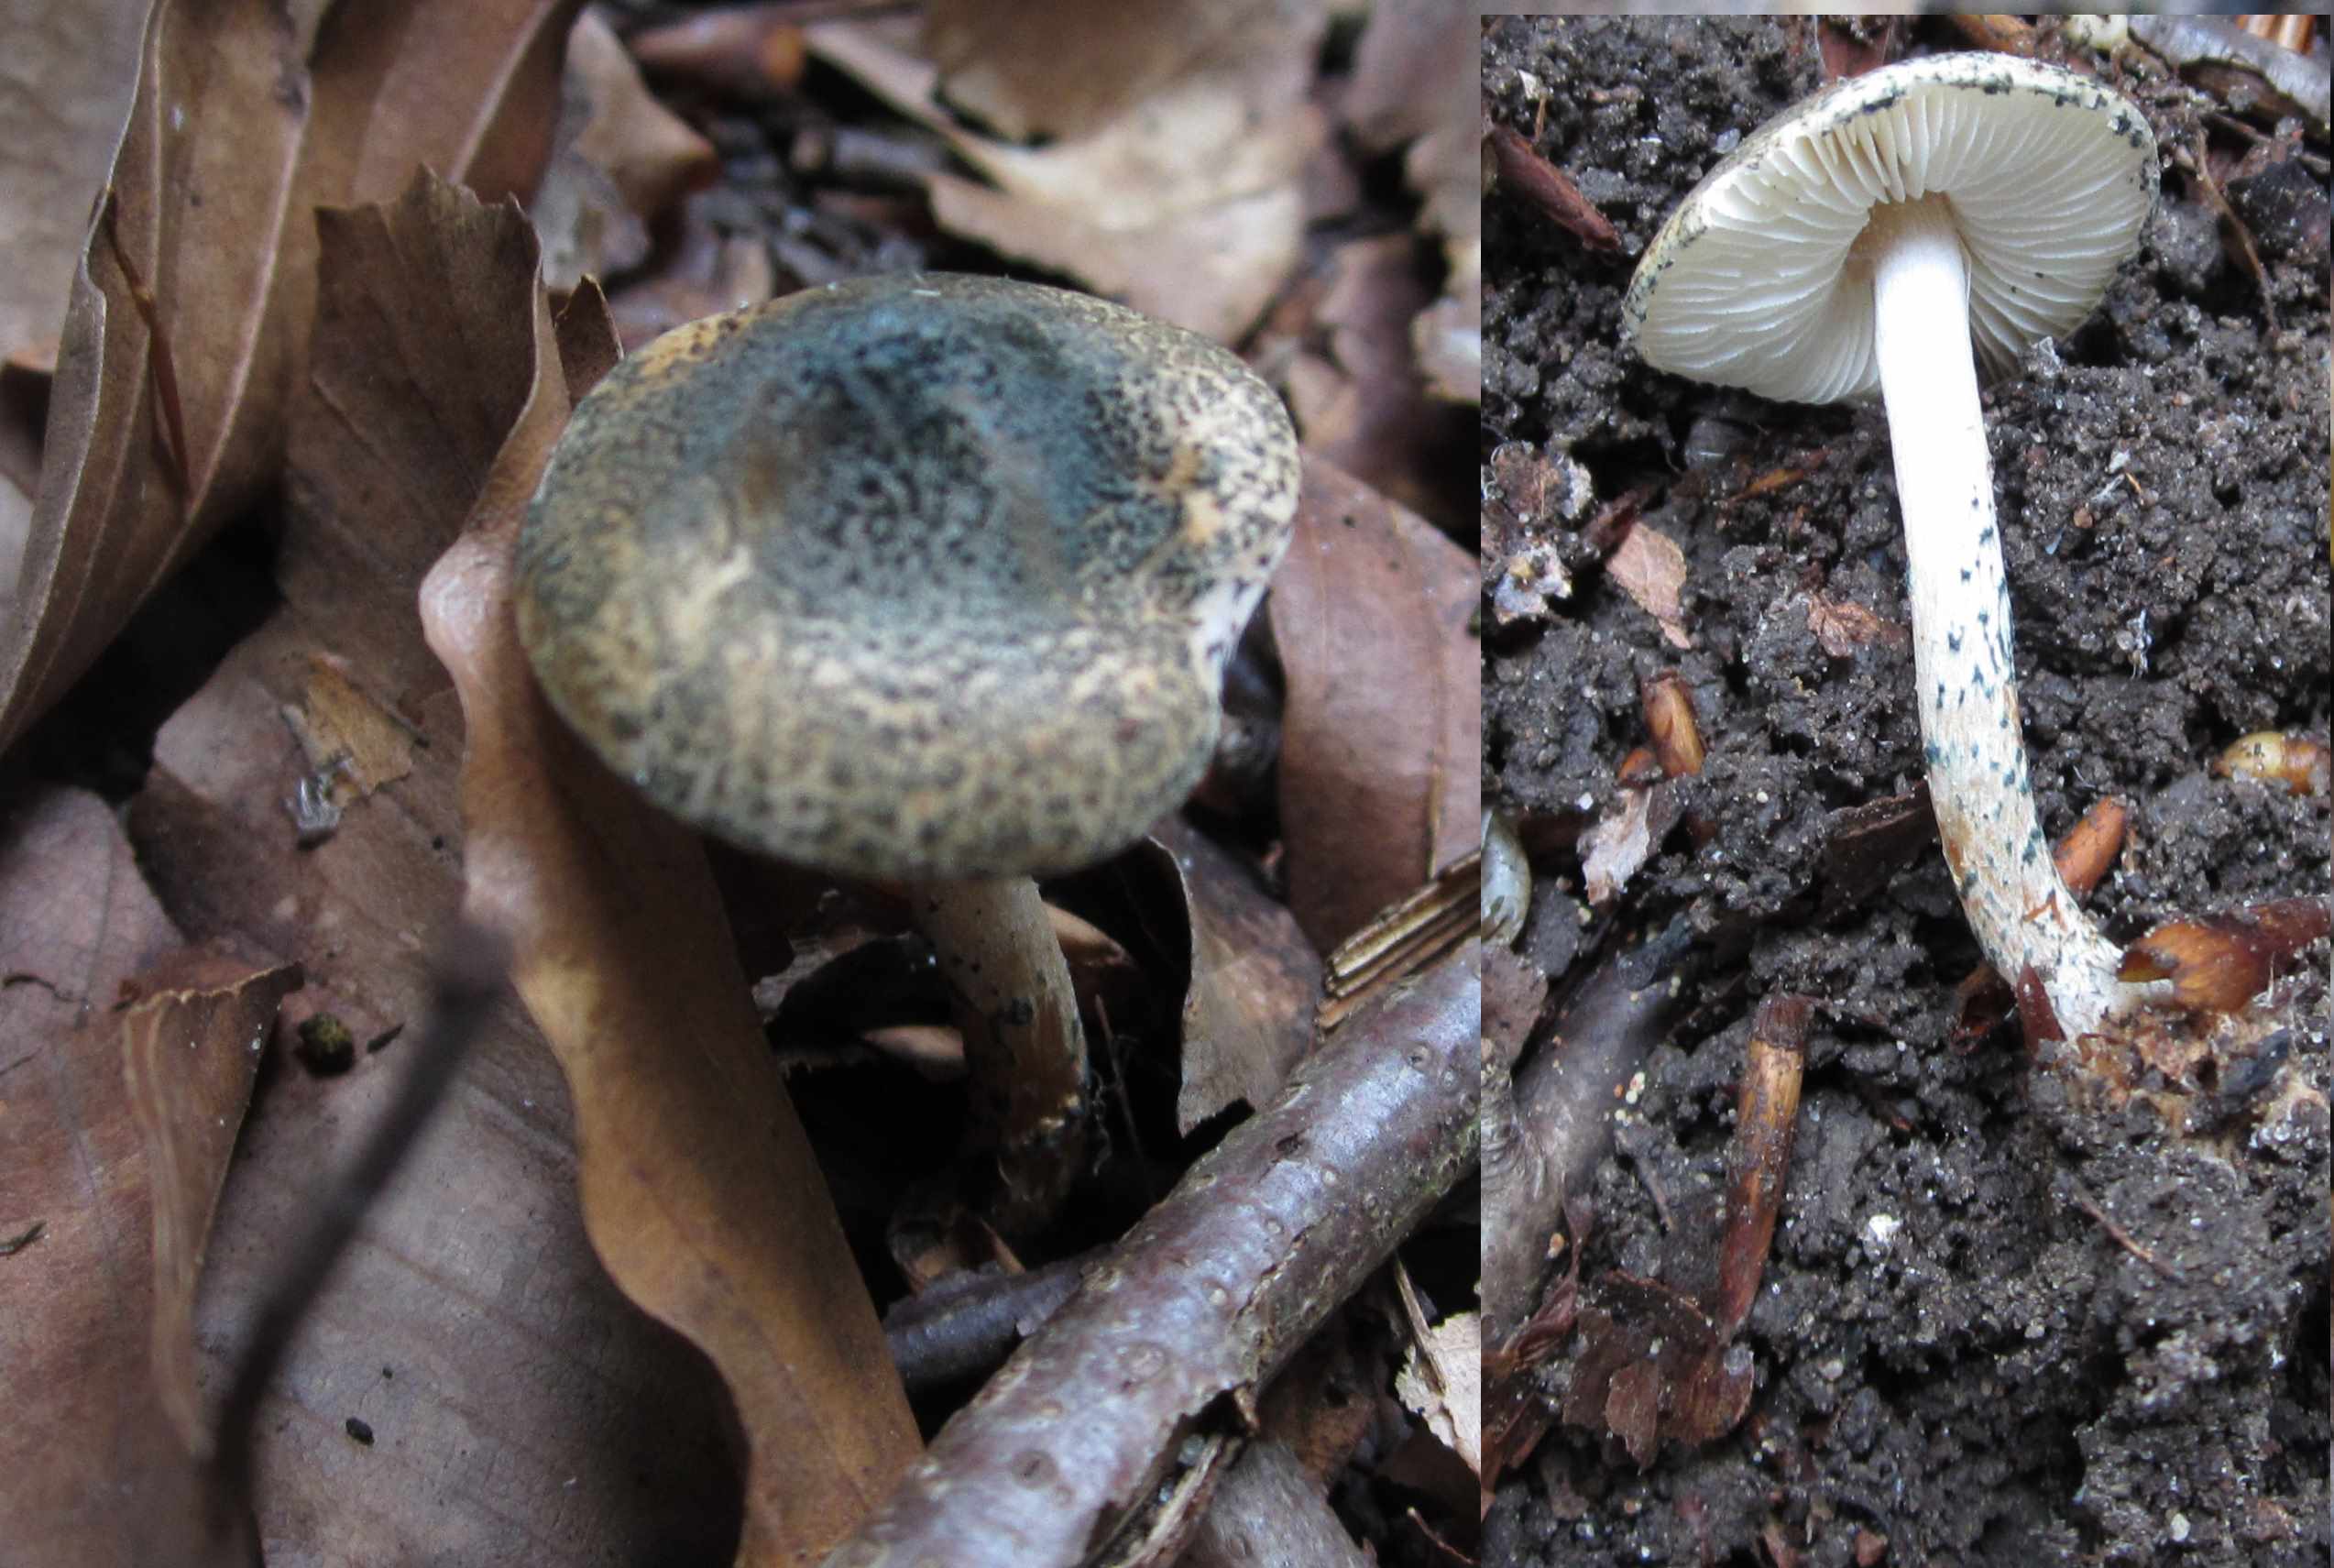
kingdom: Fungi
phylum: Basidiomycota
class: Agaricomycetes
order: Agaricales
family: Agaricaceae
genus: Lepiota
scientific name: Lepiota grangei
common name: grønskællet parasolhat
